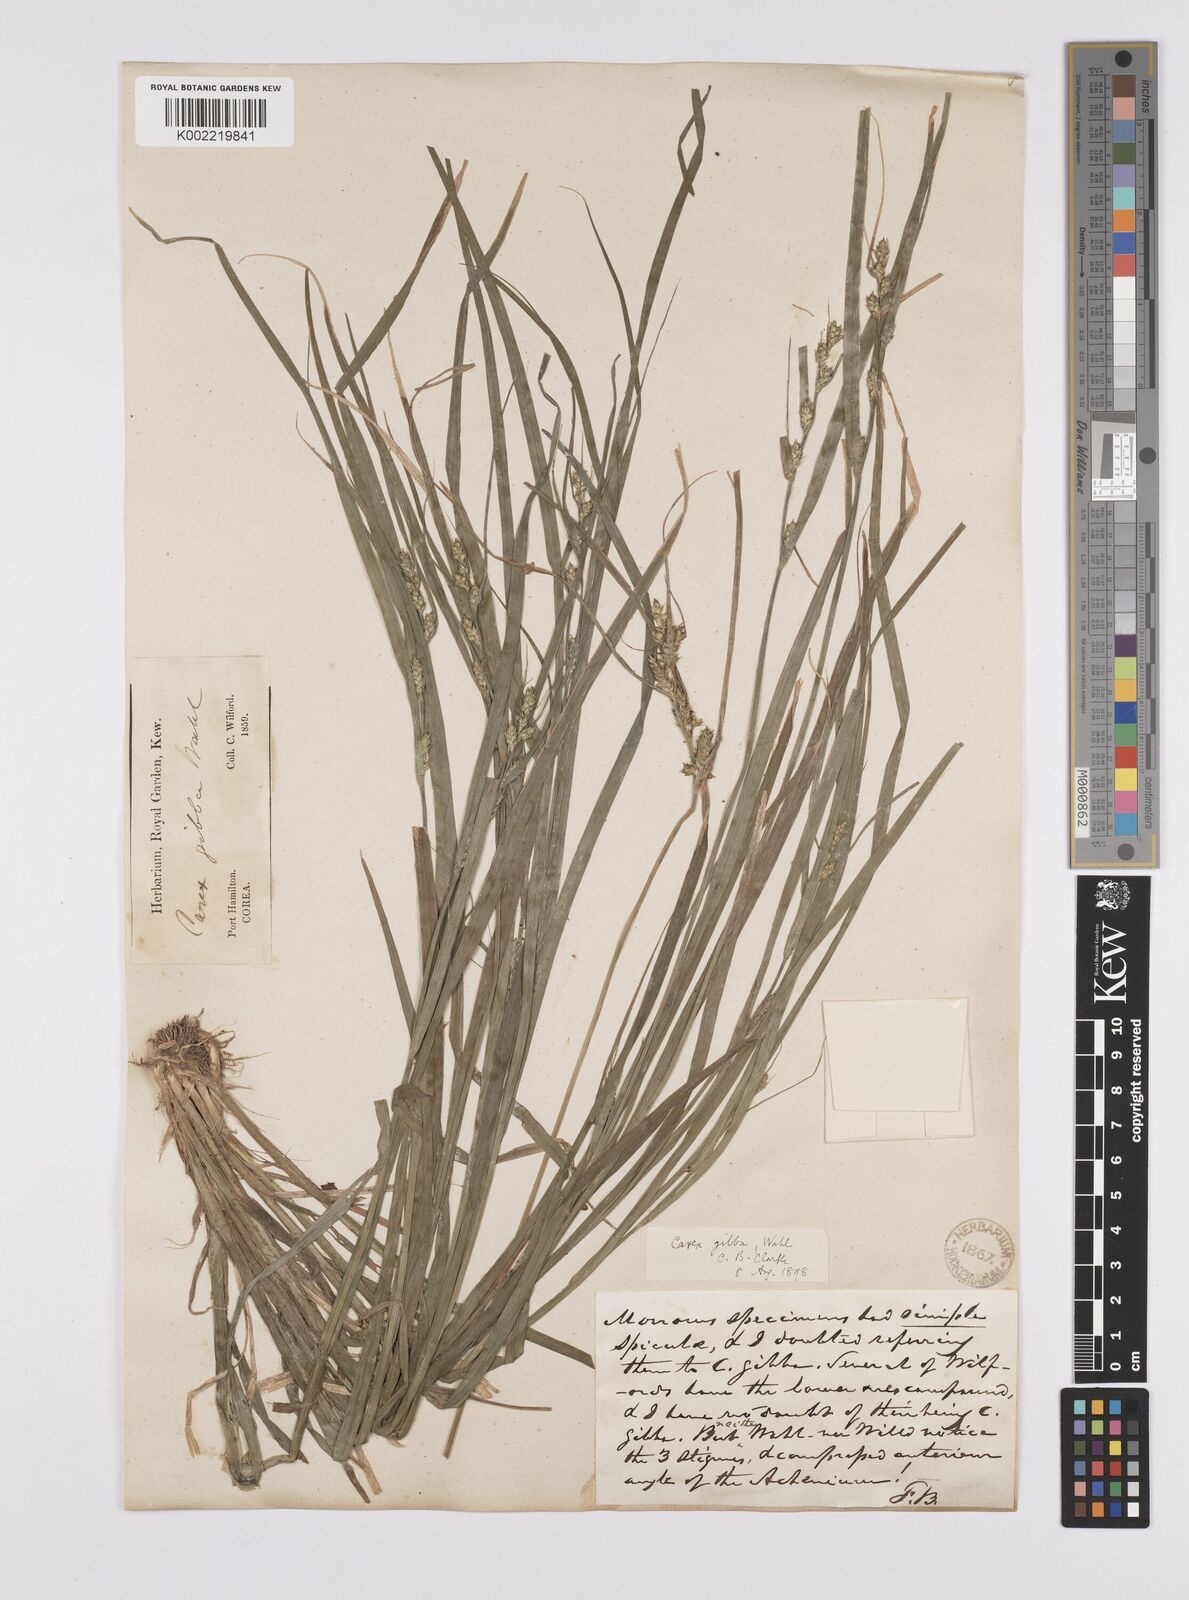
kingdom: Plantae
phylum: Tracheophyta
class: Liliopsida
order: Poales
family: Cyperaceae
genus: Carex
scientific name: Carex gibba
